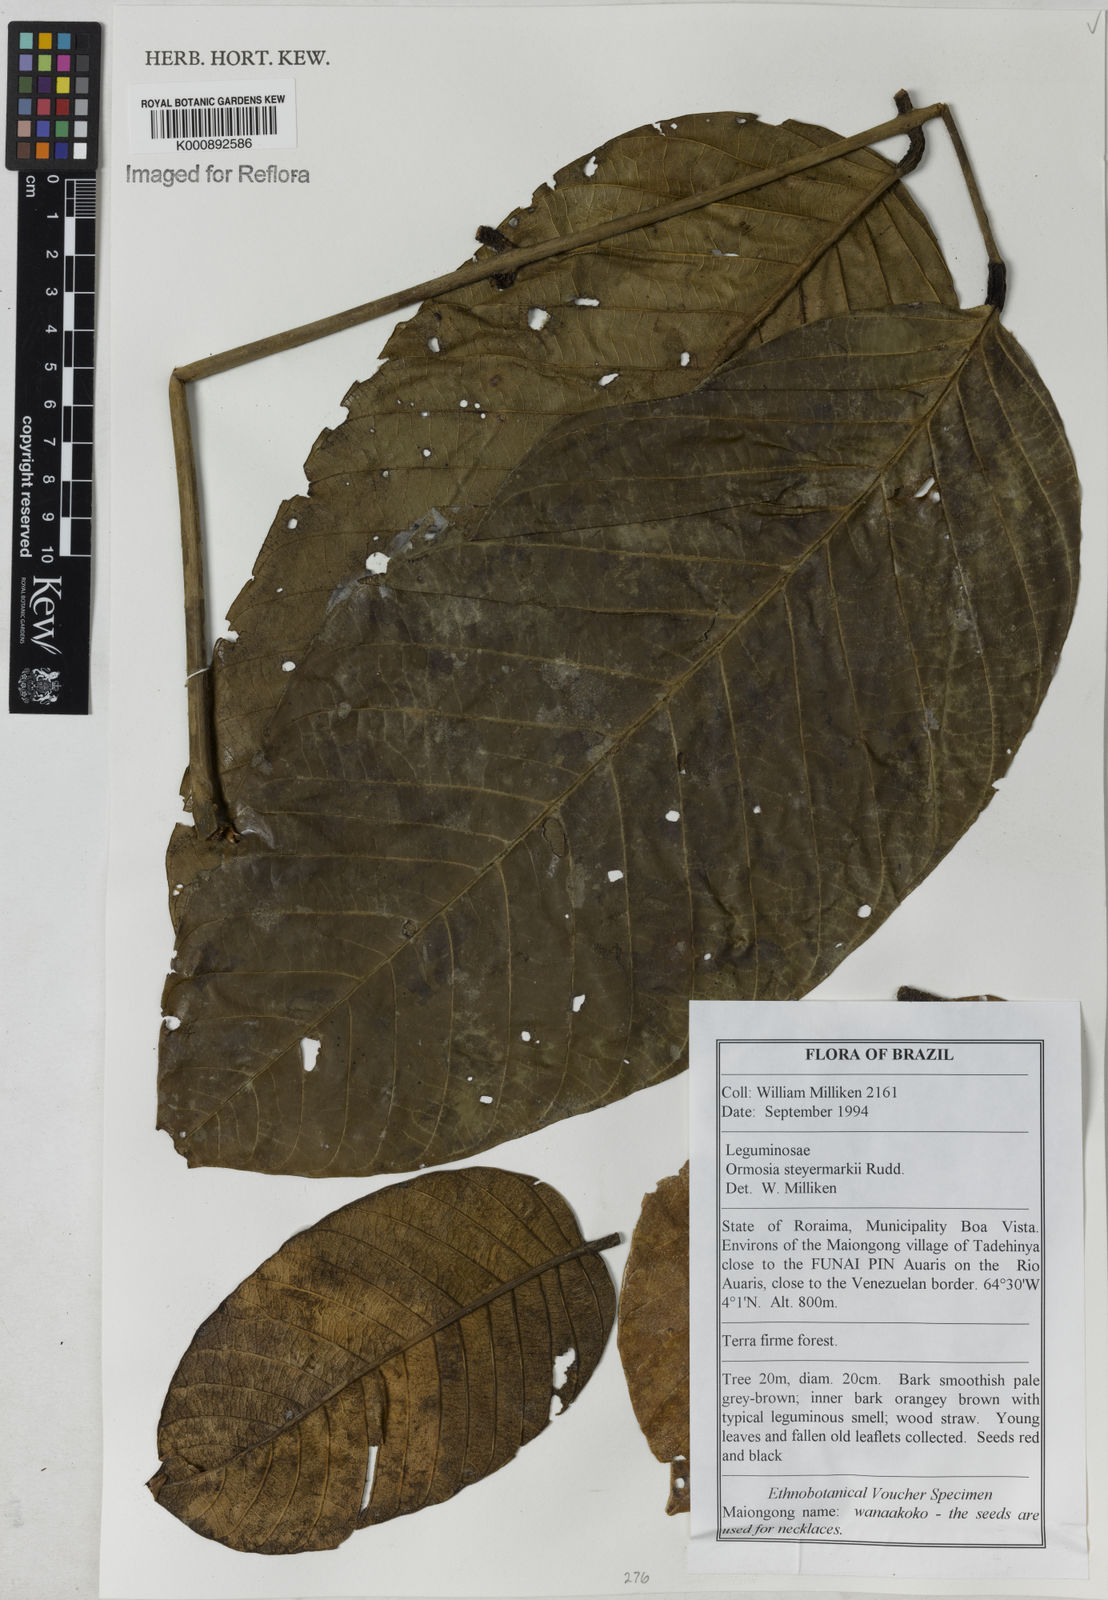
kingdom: Plantae
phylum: Tracheophyta
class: Magnoliopsida
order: Fabales
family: Fabaceae
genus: Ormosia
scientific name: Ormosia steyermarkii
